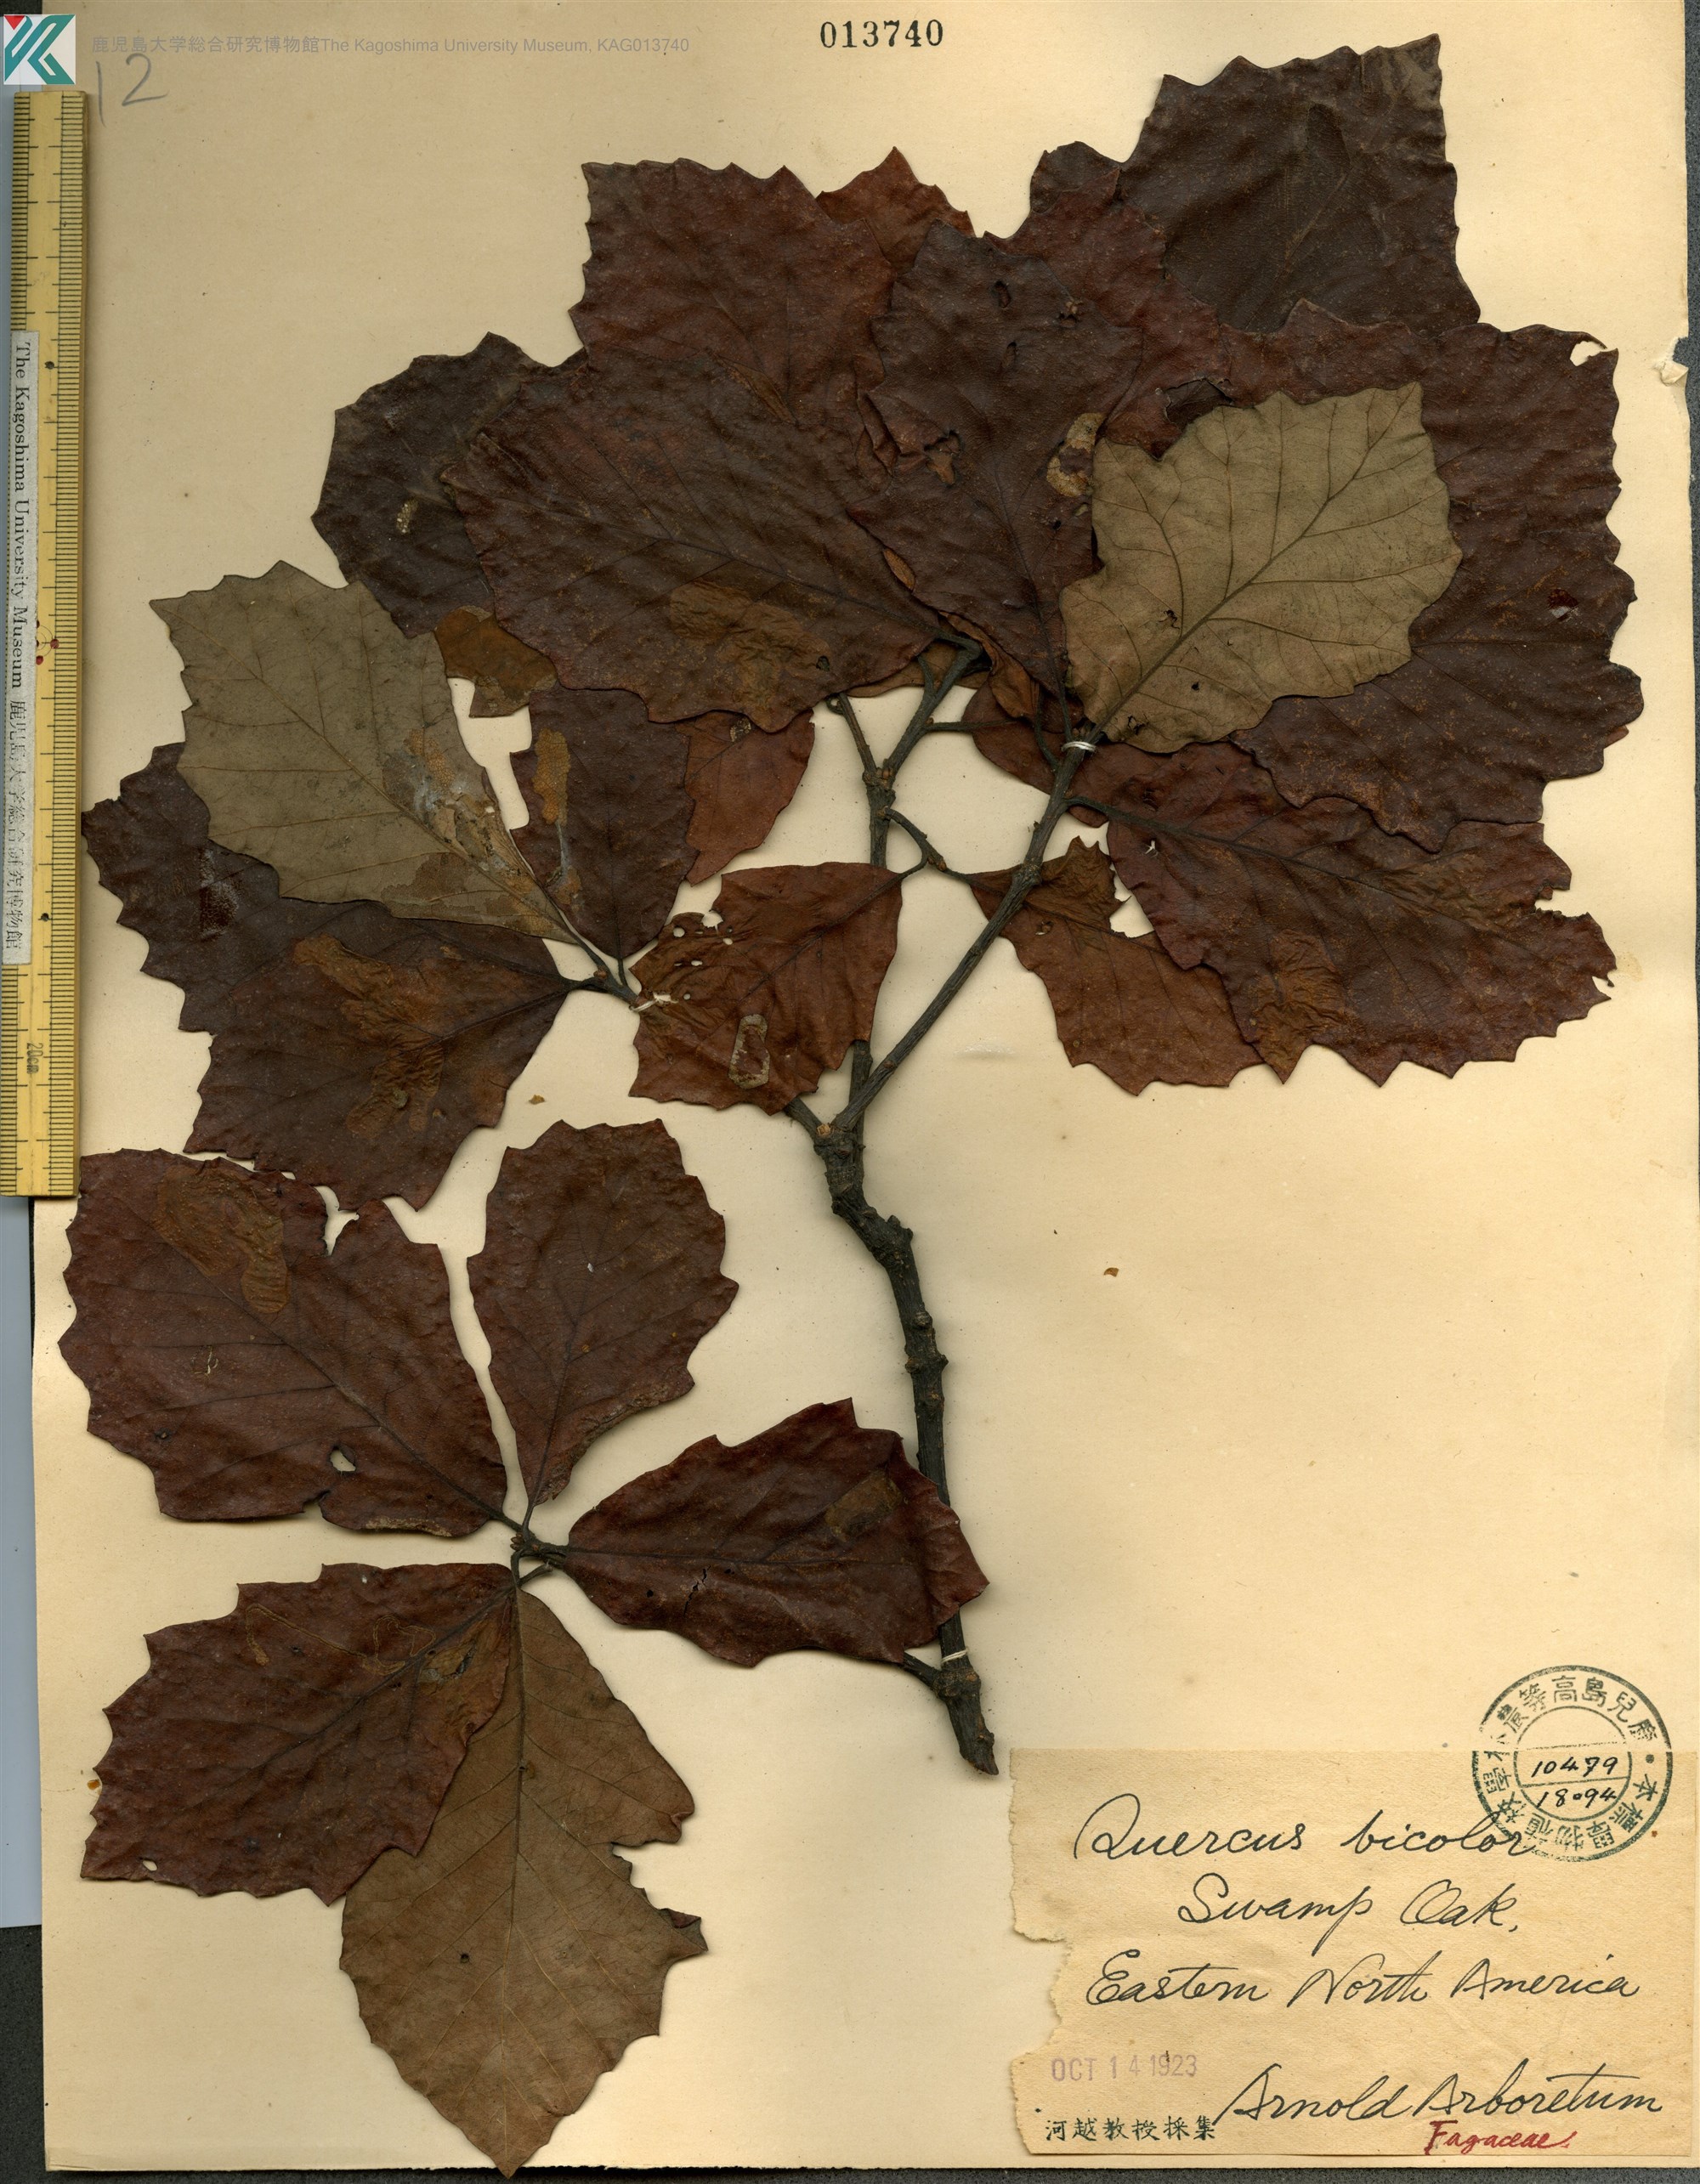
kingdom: Plantae
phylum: Tracheophyta
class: Magnoliopsida
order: Fagales
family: Fagaceae
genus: Quercus
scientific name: Quercus bicolor
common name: Swamp white oak
